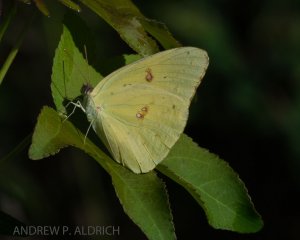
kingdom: Animalia
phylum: Arthropoda
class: Insecta
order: Lepidoptera
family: Pieridae
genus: Phoebis
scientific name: Phoebis sennae
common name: Cloudless Sulphur
